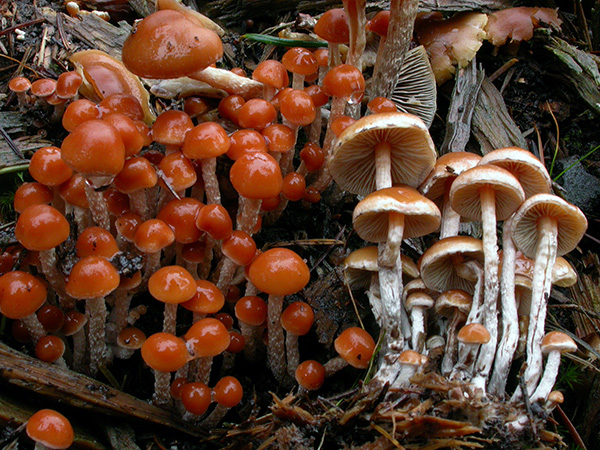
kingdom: Fungi
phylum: Basidiomycota
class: Agaricomycetes
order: Agaricales
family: Strophariaceae
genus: Hypholoma
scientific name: Hypholoma marginatum
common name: enlig svovlhat
